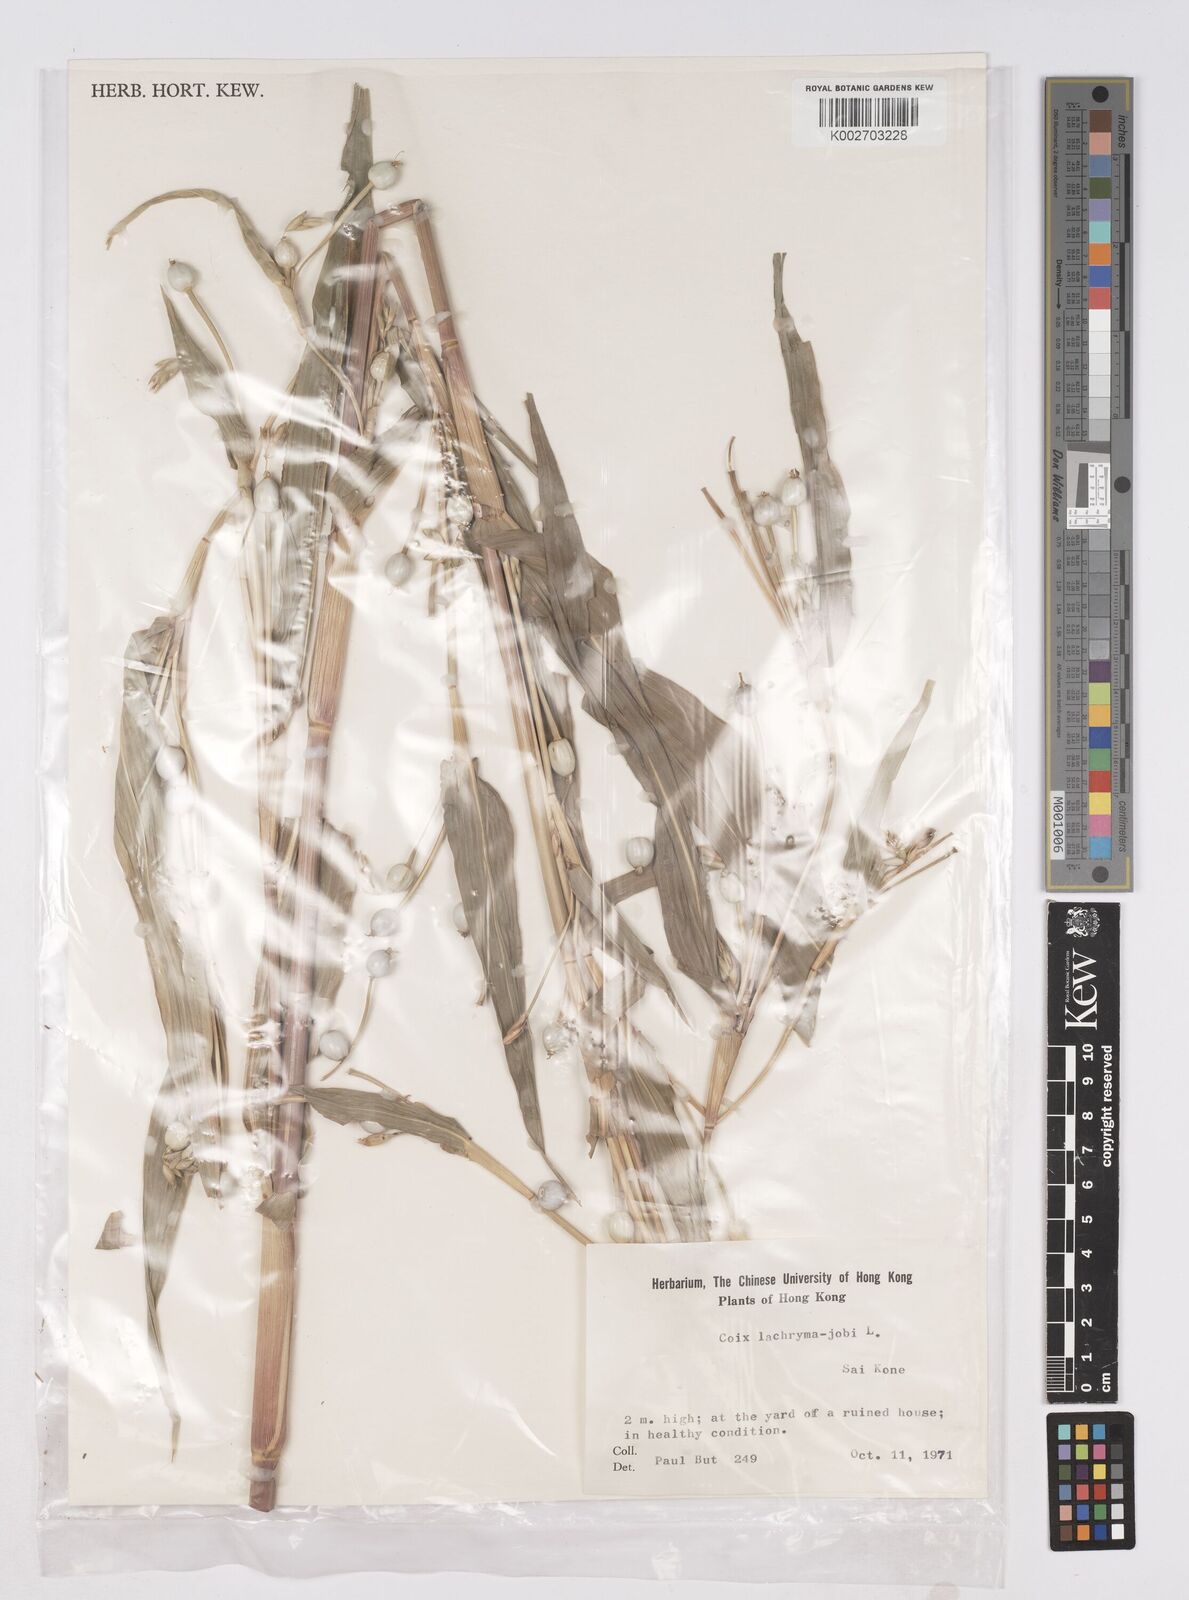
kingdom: Plantae
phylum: Tracheophyta
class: Liliopsida
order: Poales
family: Poaceae
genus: Coix
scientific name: Coix lacryma-jobi
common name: Job's tears
